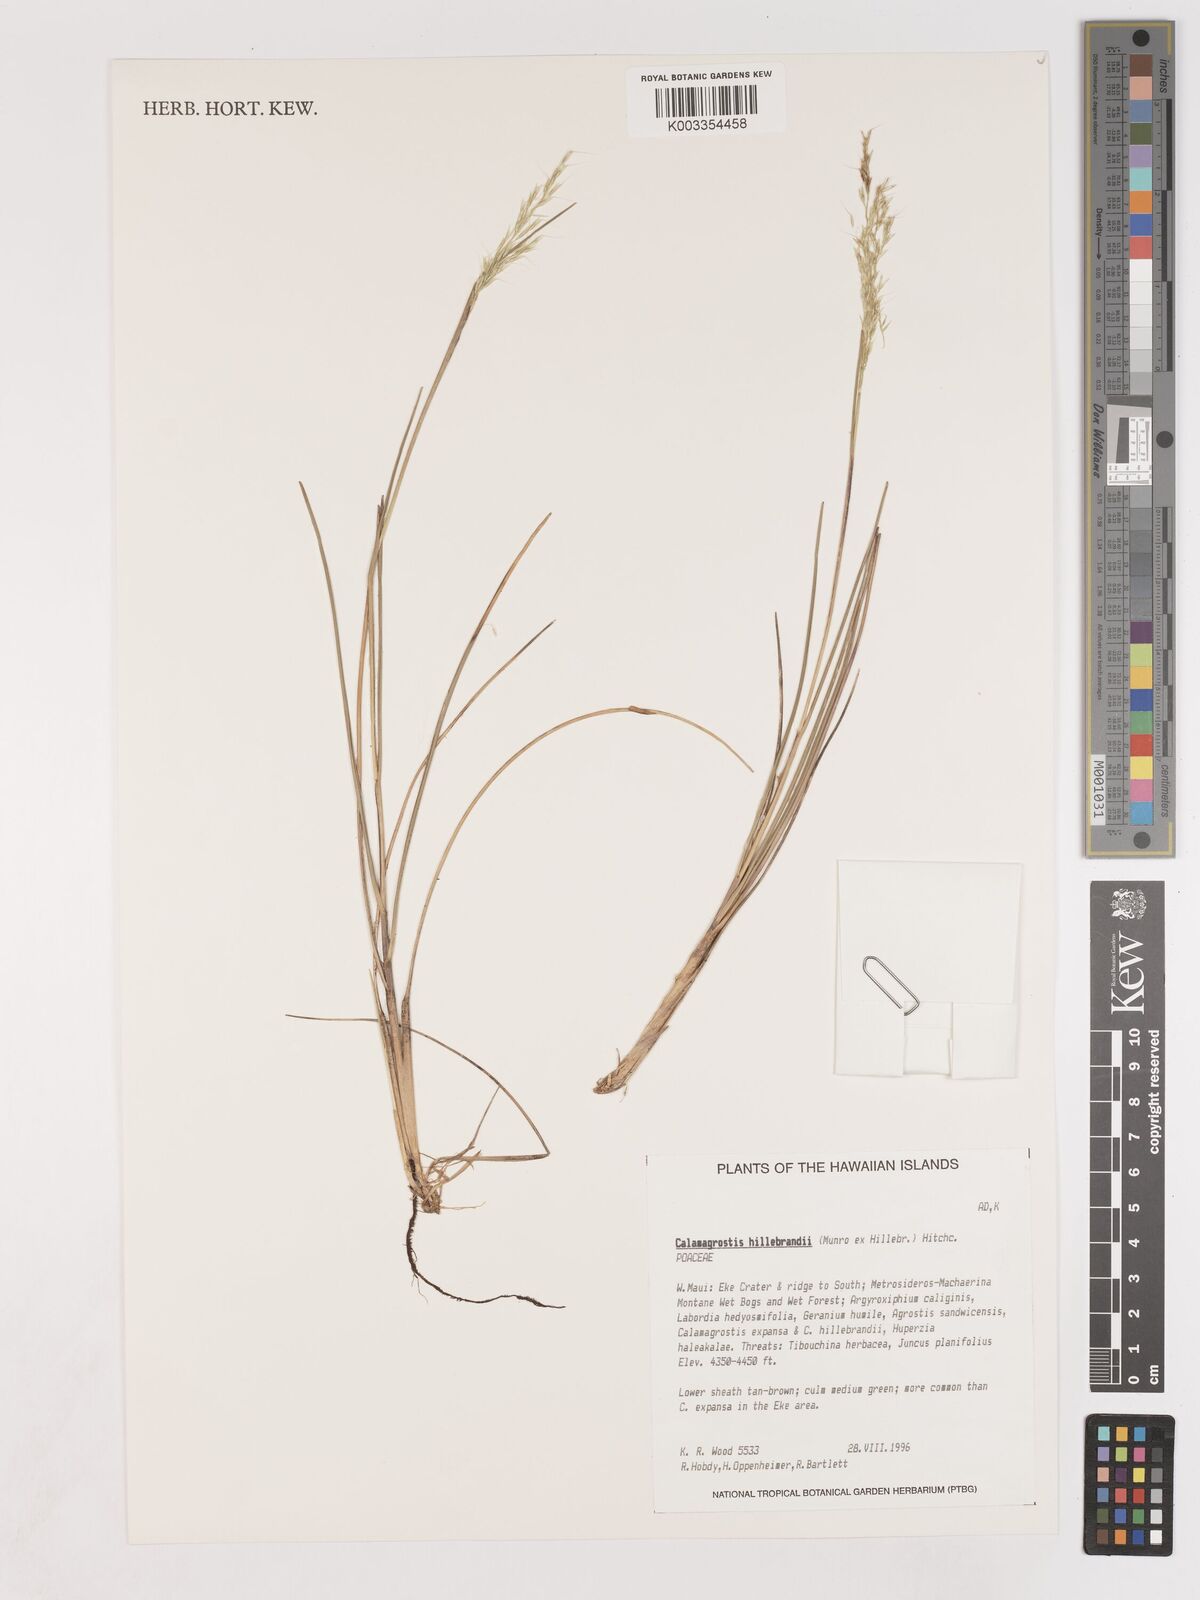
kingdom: Plantae
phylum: Tracheophyta
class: Liliopsida
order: Poales
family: Poaceae
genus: Calamagrostis
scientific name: Calamagrostis hillebrandii
